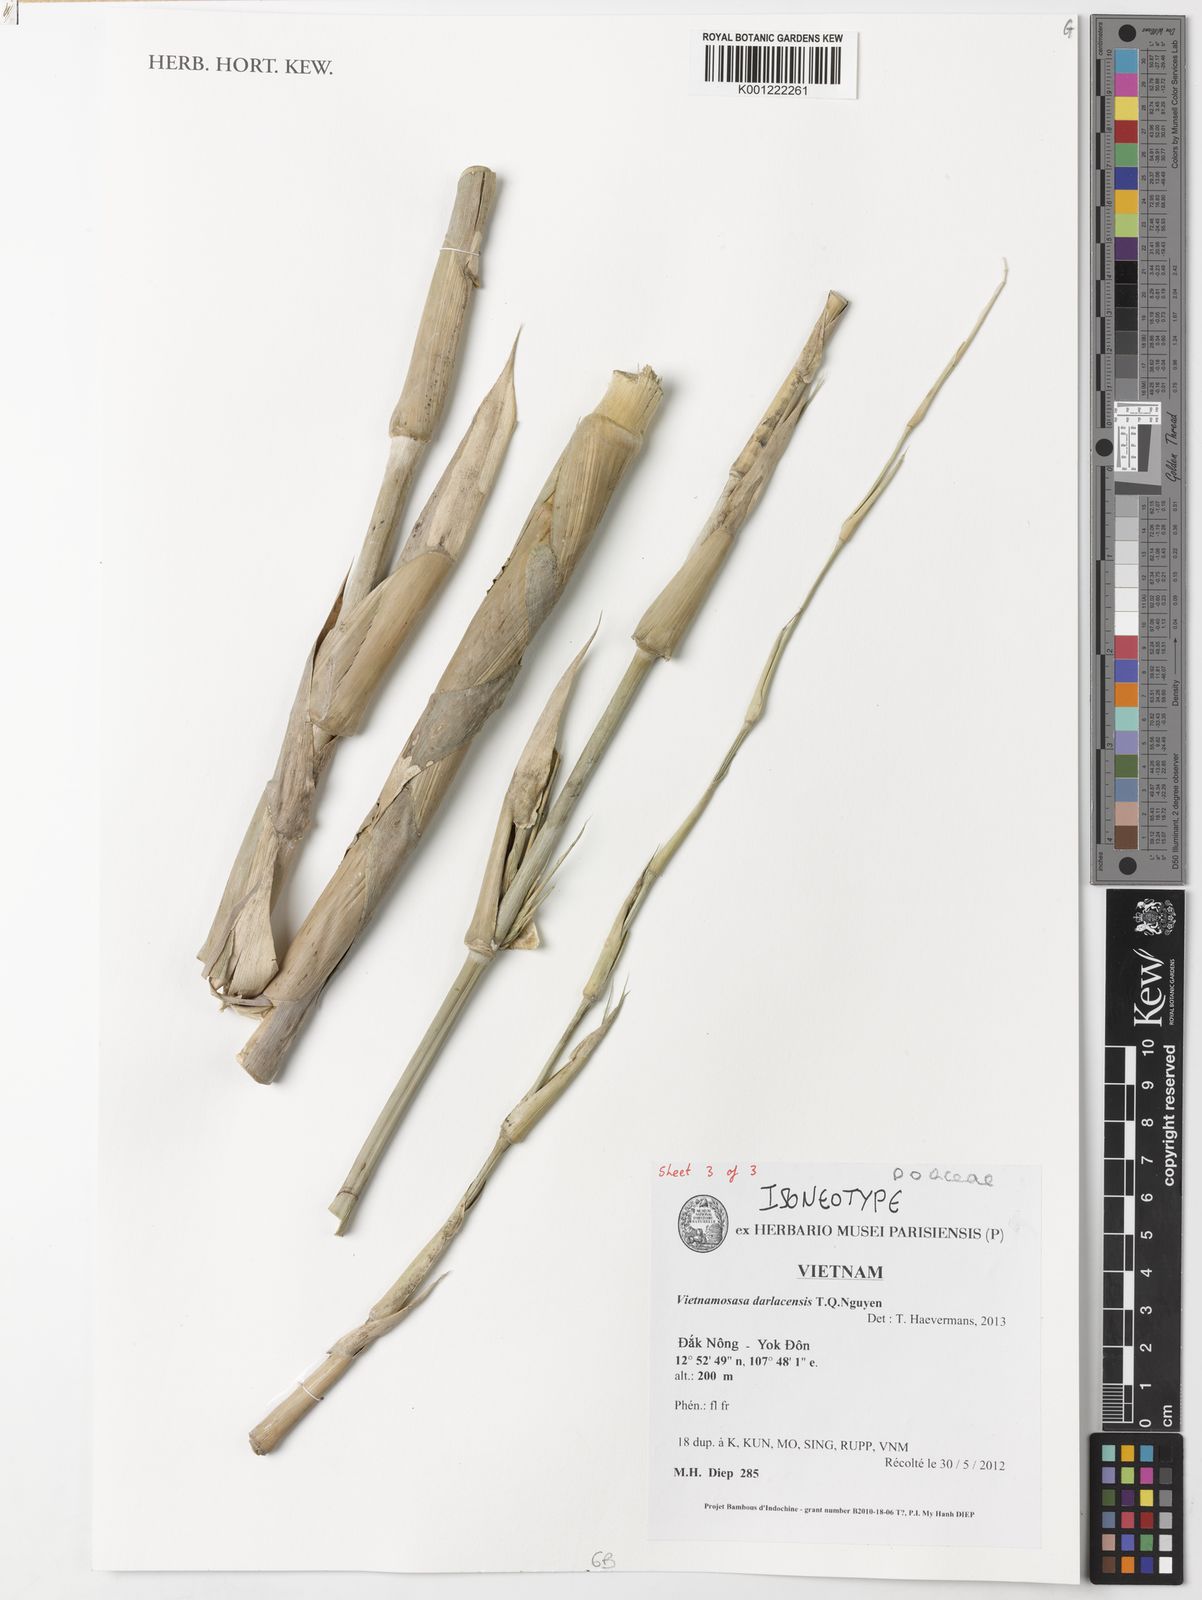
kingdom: Plantae
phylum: Tracheophyta
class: Liliopsida
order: Poales
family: Poaceae
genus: Vietnamosasa
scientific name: Vietnamosasa darlacensis
